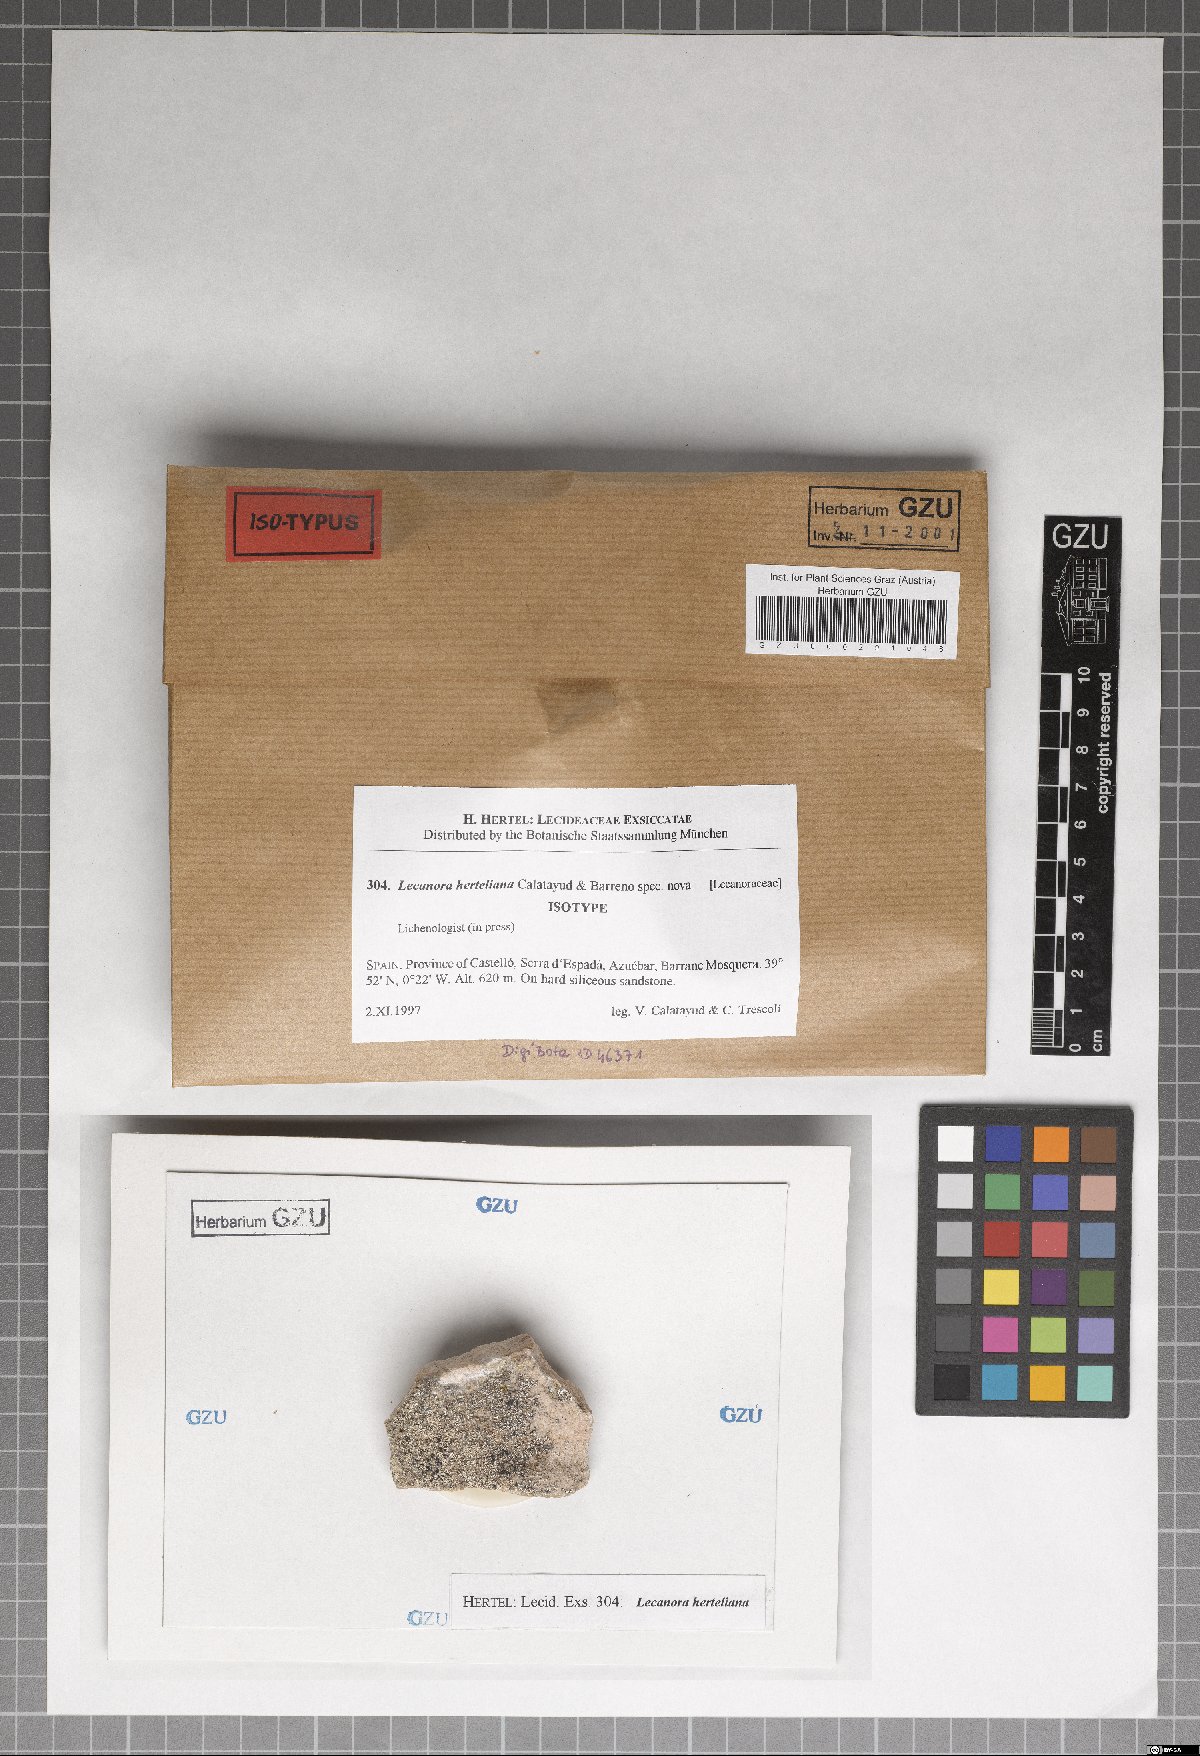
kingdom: Fungi
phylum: Ascomycota
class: Lecanoromycetes
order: Lecanorales
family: Lecanoraceae
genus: Lecanora
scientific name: Lecanora herteliana
